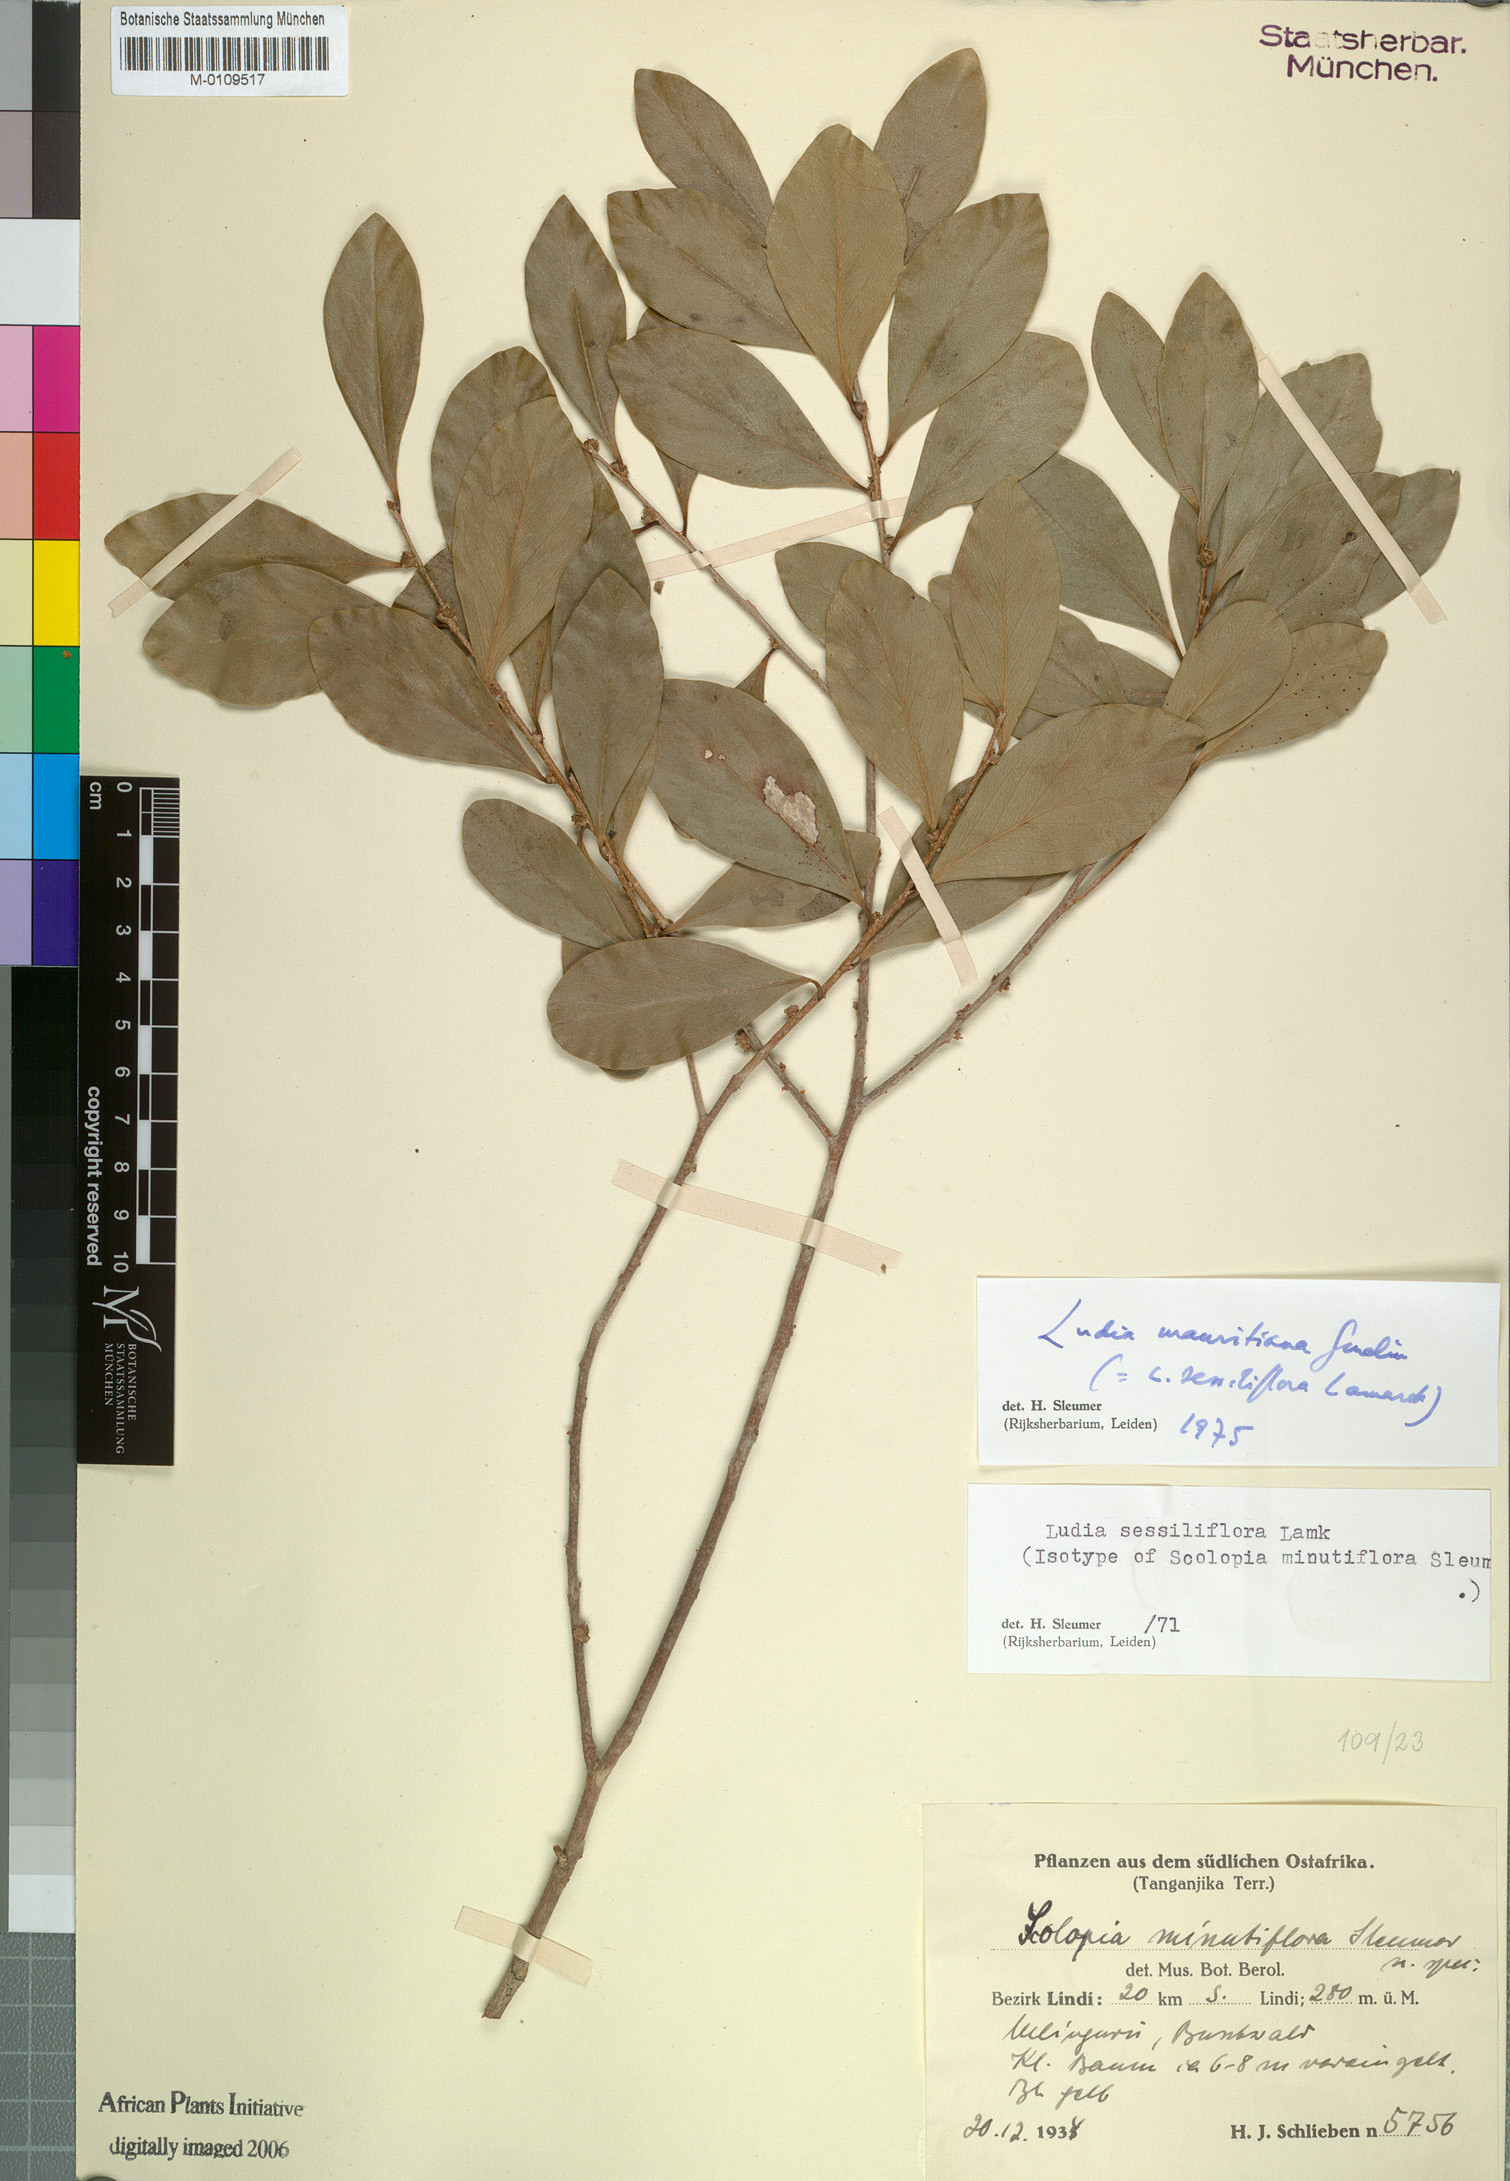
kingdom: Plantae
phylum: Tracheophyta
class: Magnoliopsida
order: Malpighiales
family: Salicaceae
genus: Ludia
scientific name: Ludia mauritiana
